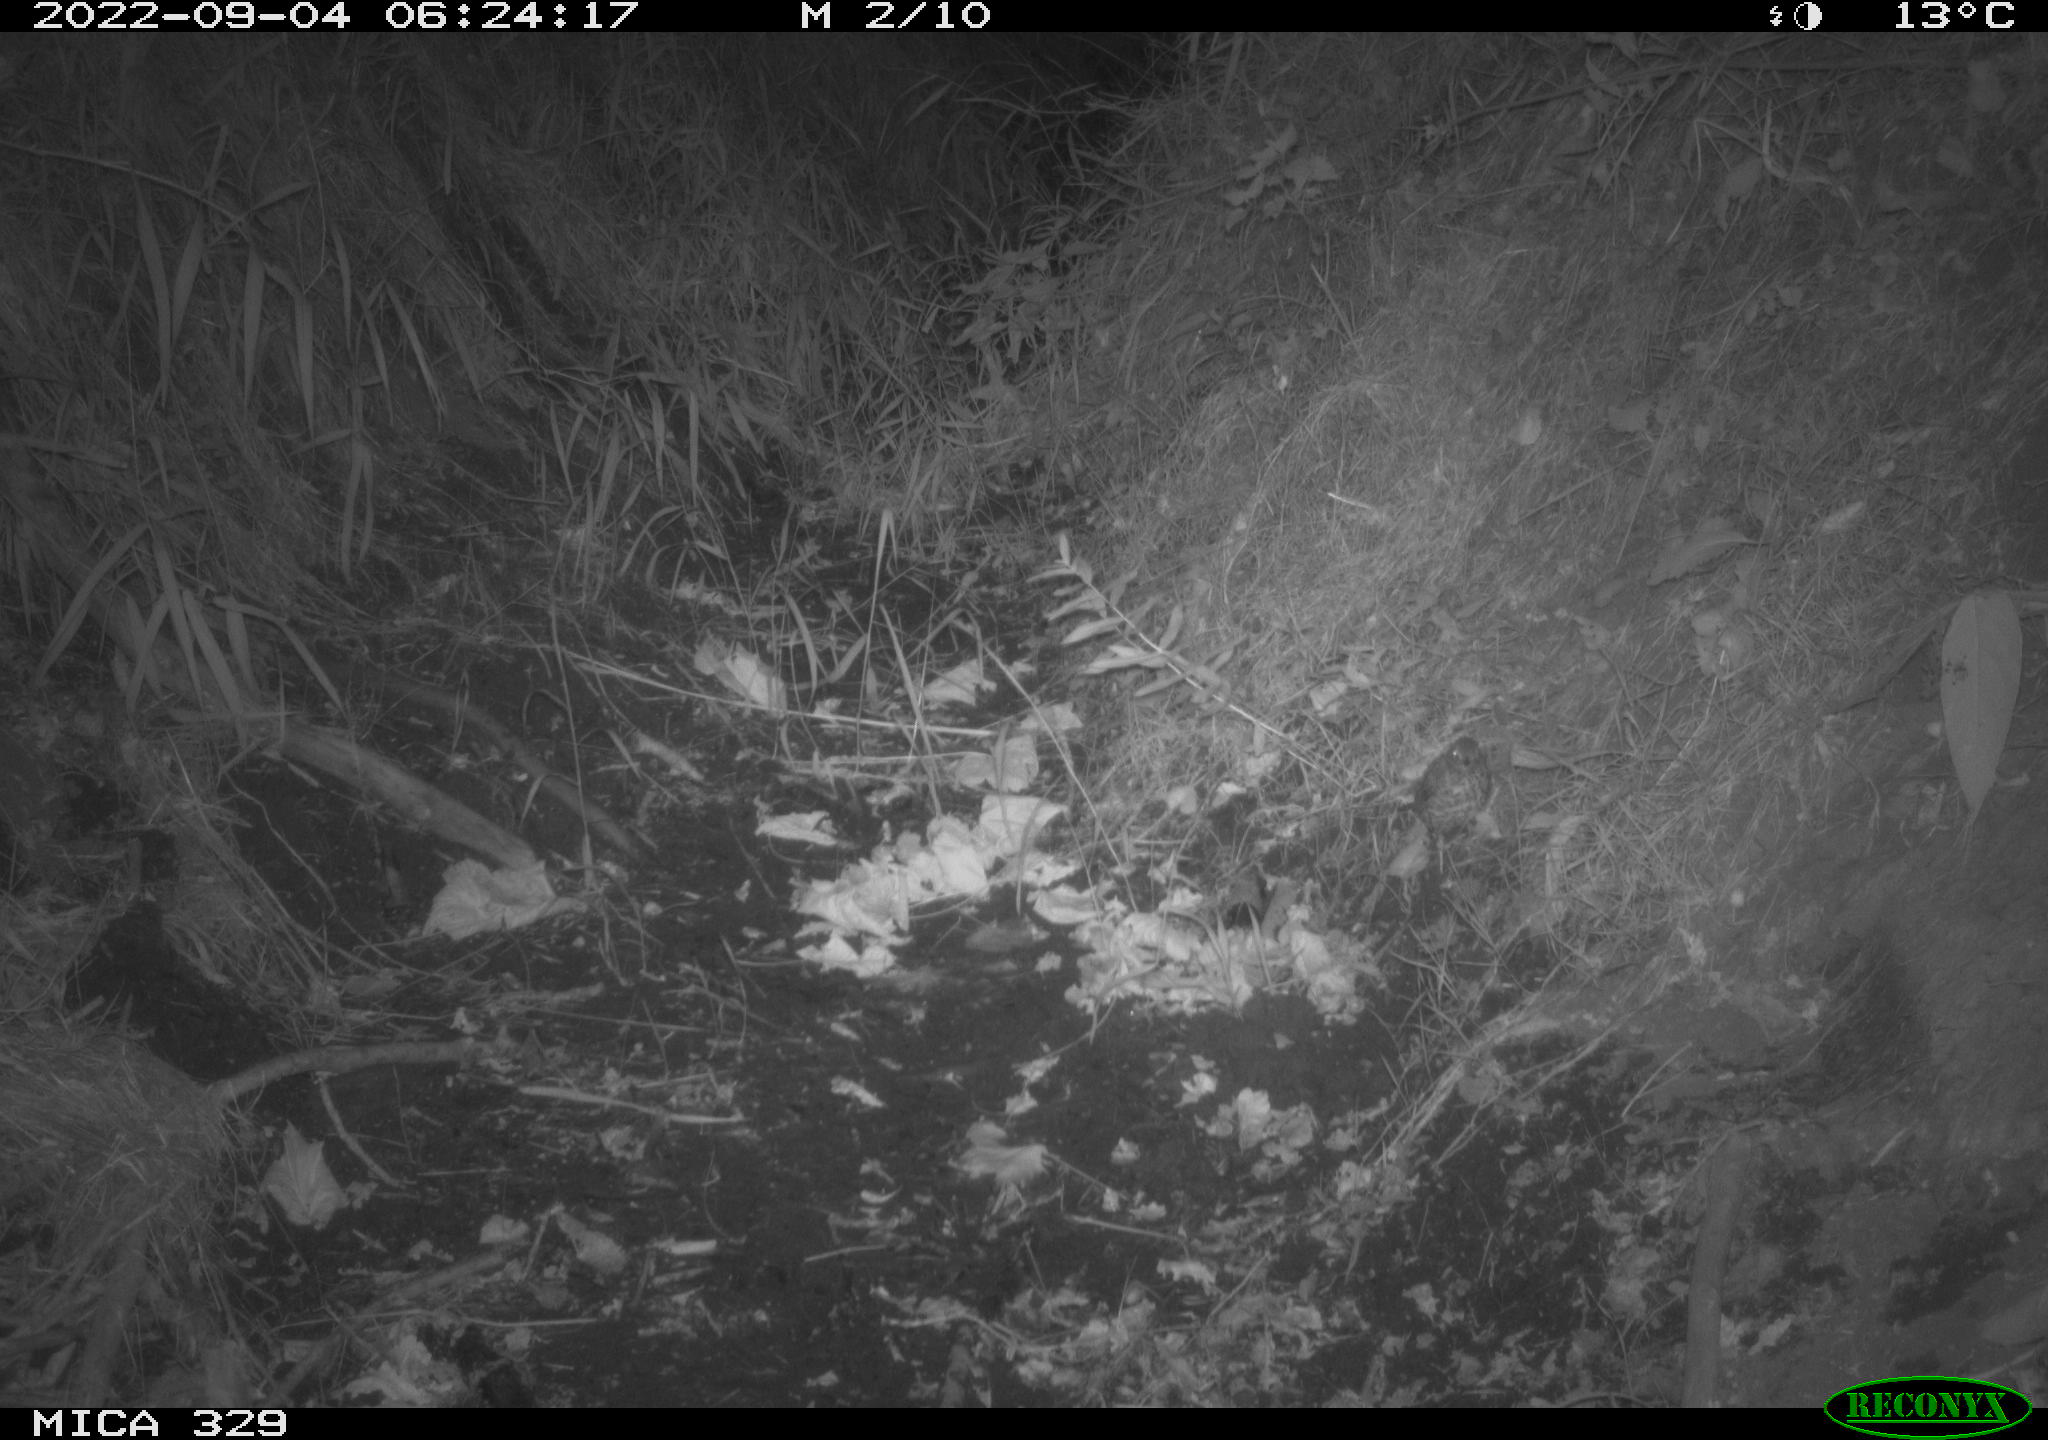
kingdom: Animalia
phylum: Chordata
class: Aves
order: Passeriformes
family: Turdidae
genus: Turdus
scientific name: Turdus philomelos
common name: Song thrush
